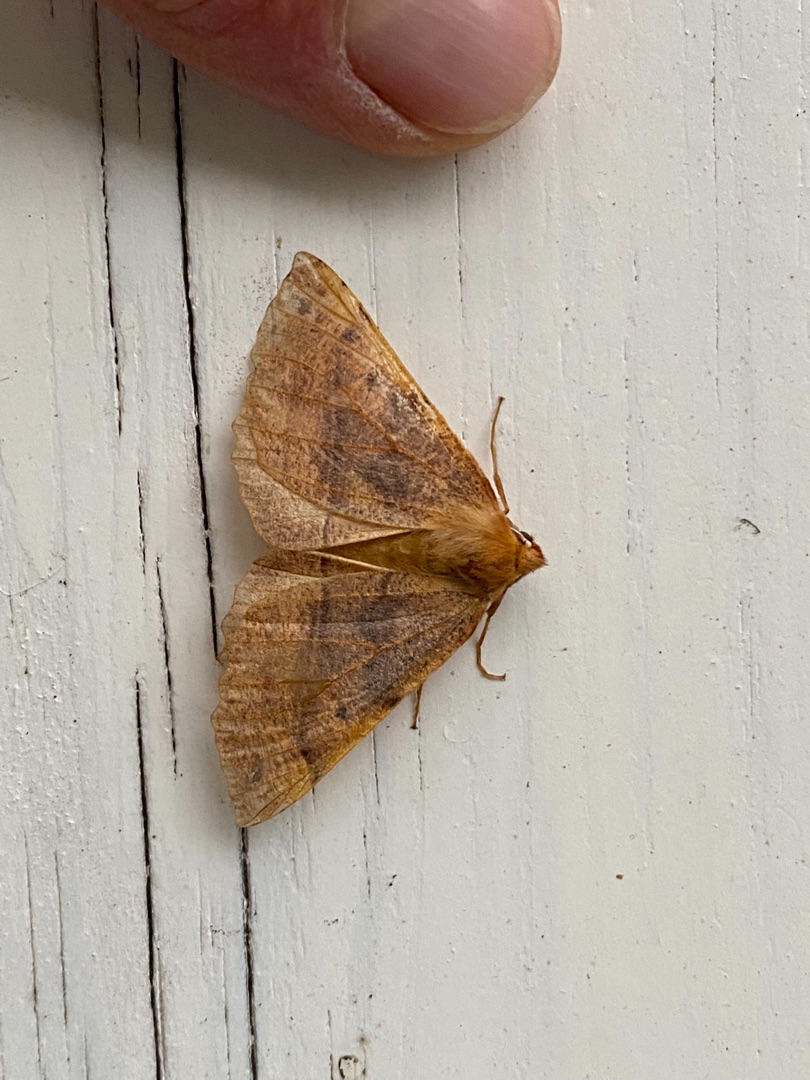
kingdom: Animalia
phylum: Arthropoda
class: Insecta
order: Lepidoptera
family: Geometridae
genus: Colotois
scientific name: Colotois pennaria
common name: Løvfaldsmåler
